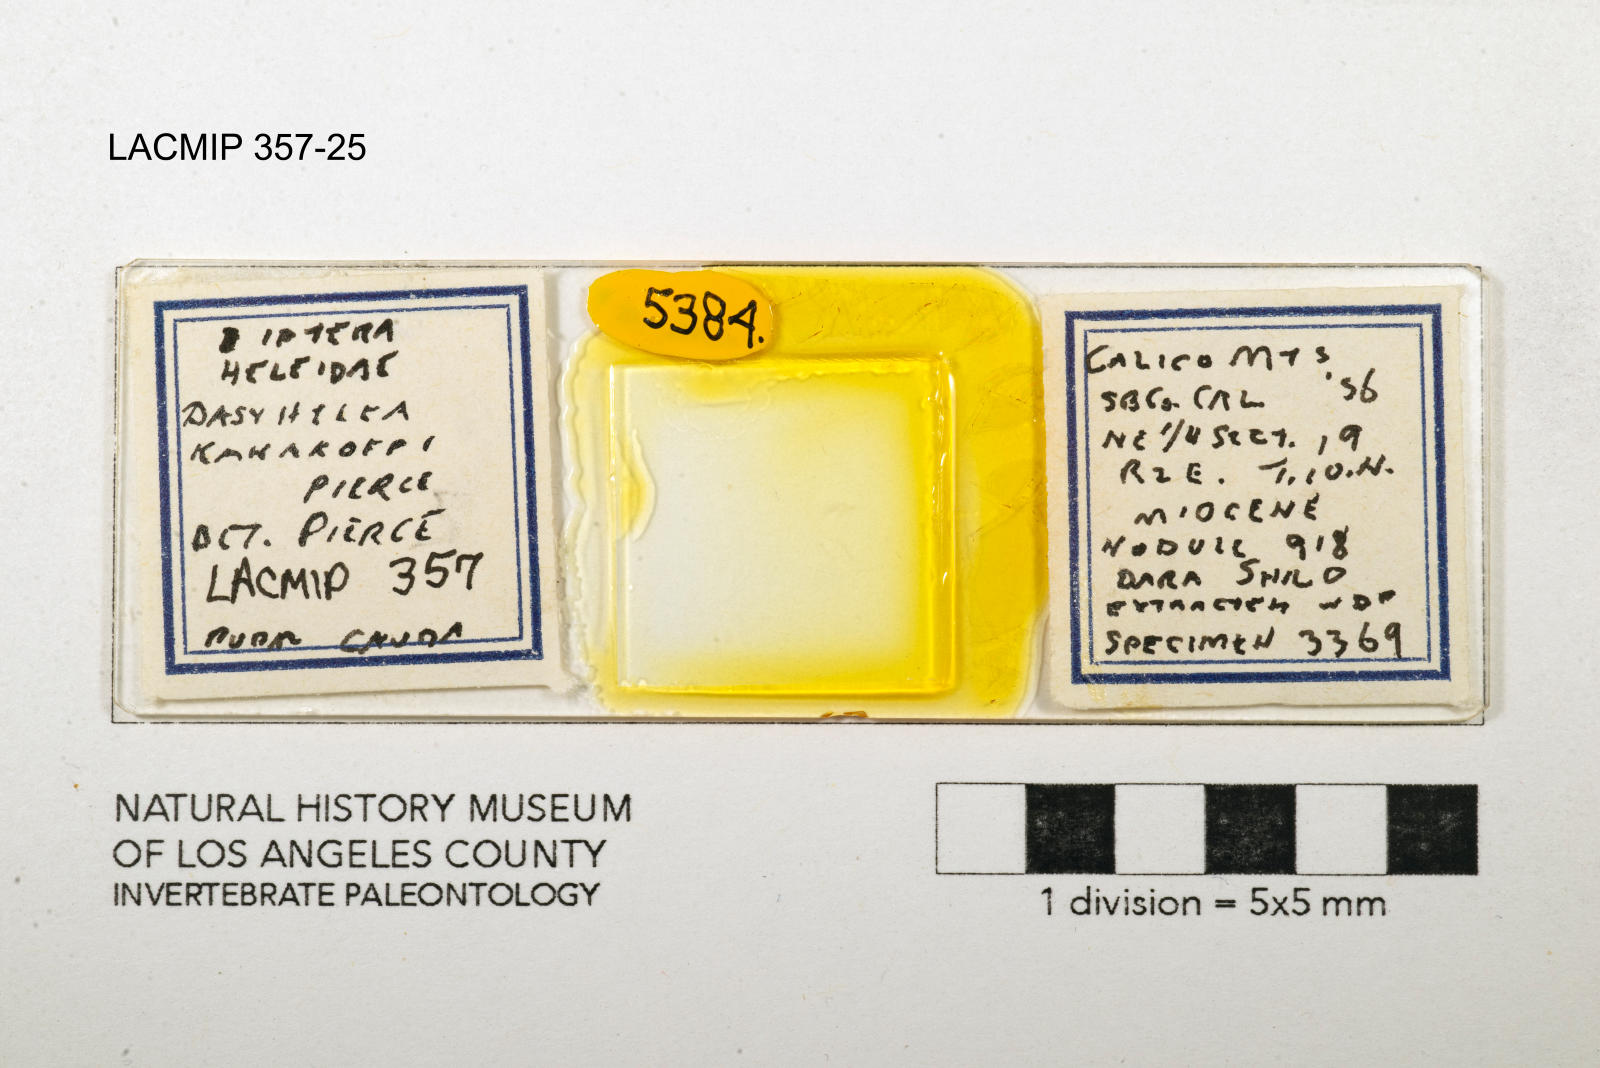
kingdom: Animalia
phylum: Arthropoda
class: Insecta
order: Diptera
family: Ceratopogonidae
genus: Dasyhelea
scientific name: Dasyhelea kanakoffi
